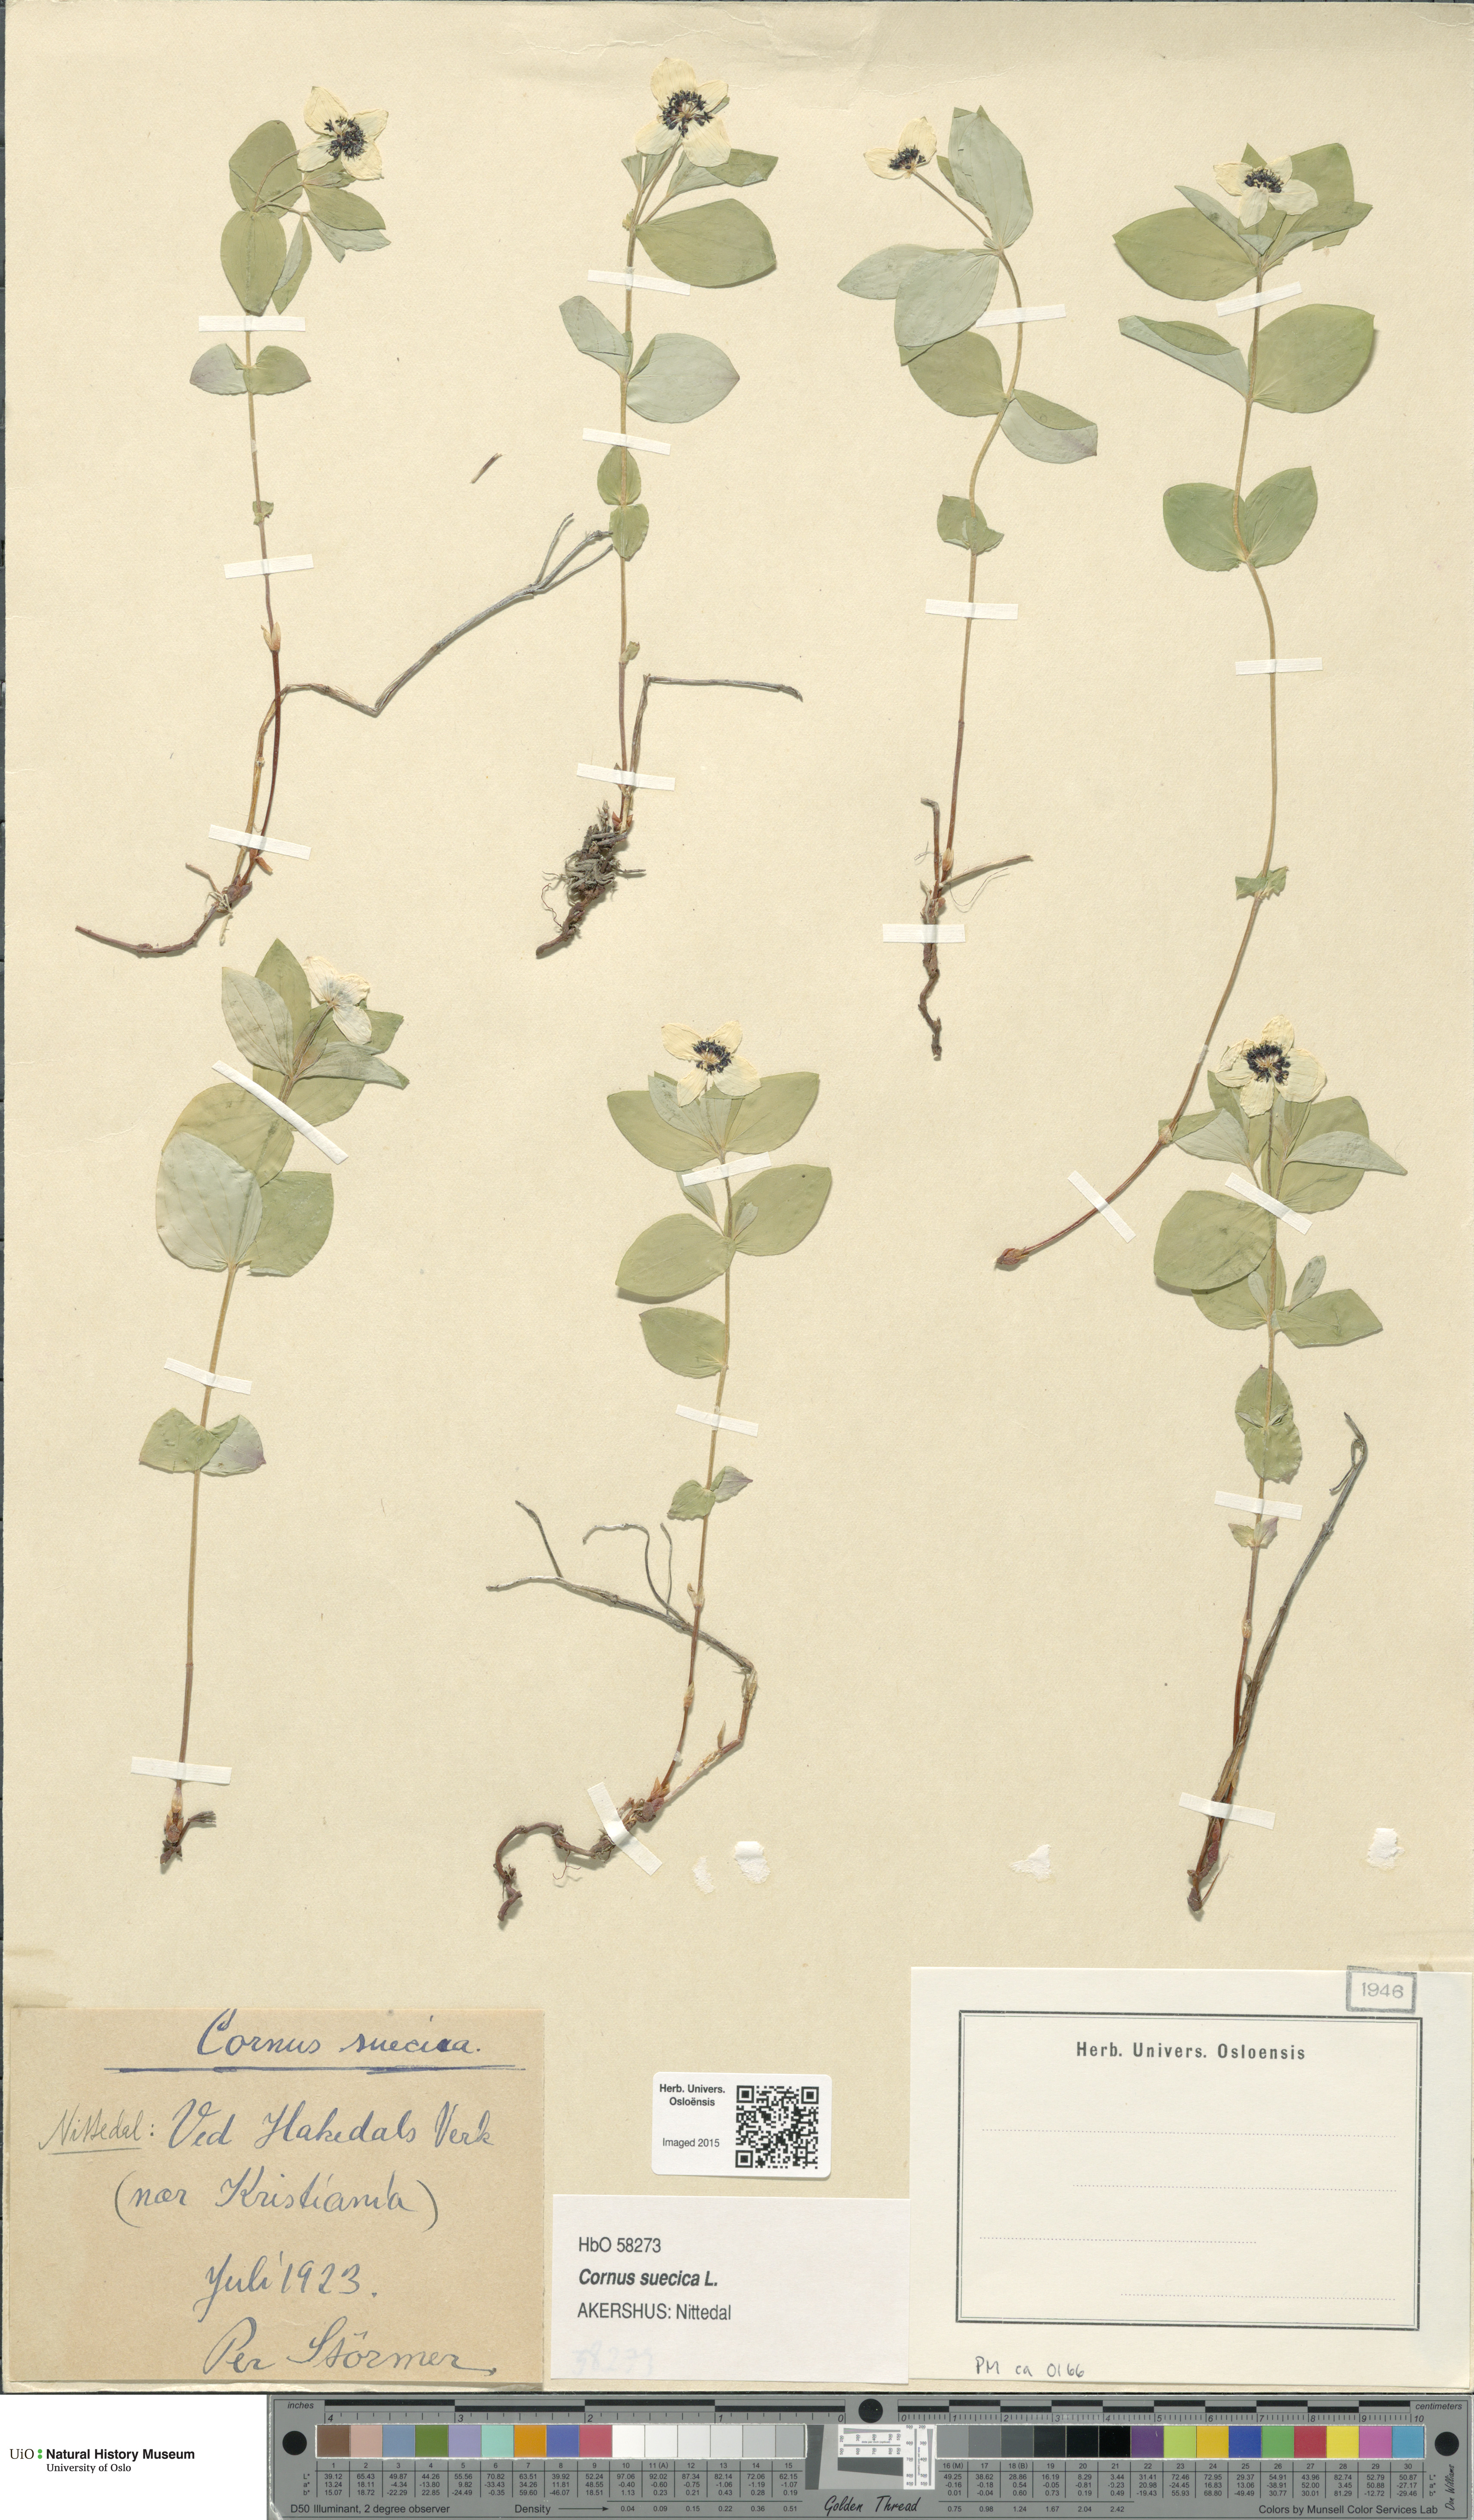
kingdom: Plantae
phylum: Tracheophyta
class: Magnoliopsida
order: Cornales
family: Cornaceae
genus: Cornus
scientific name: Cornus suecica
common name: Dwarf cornel
